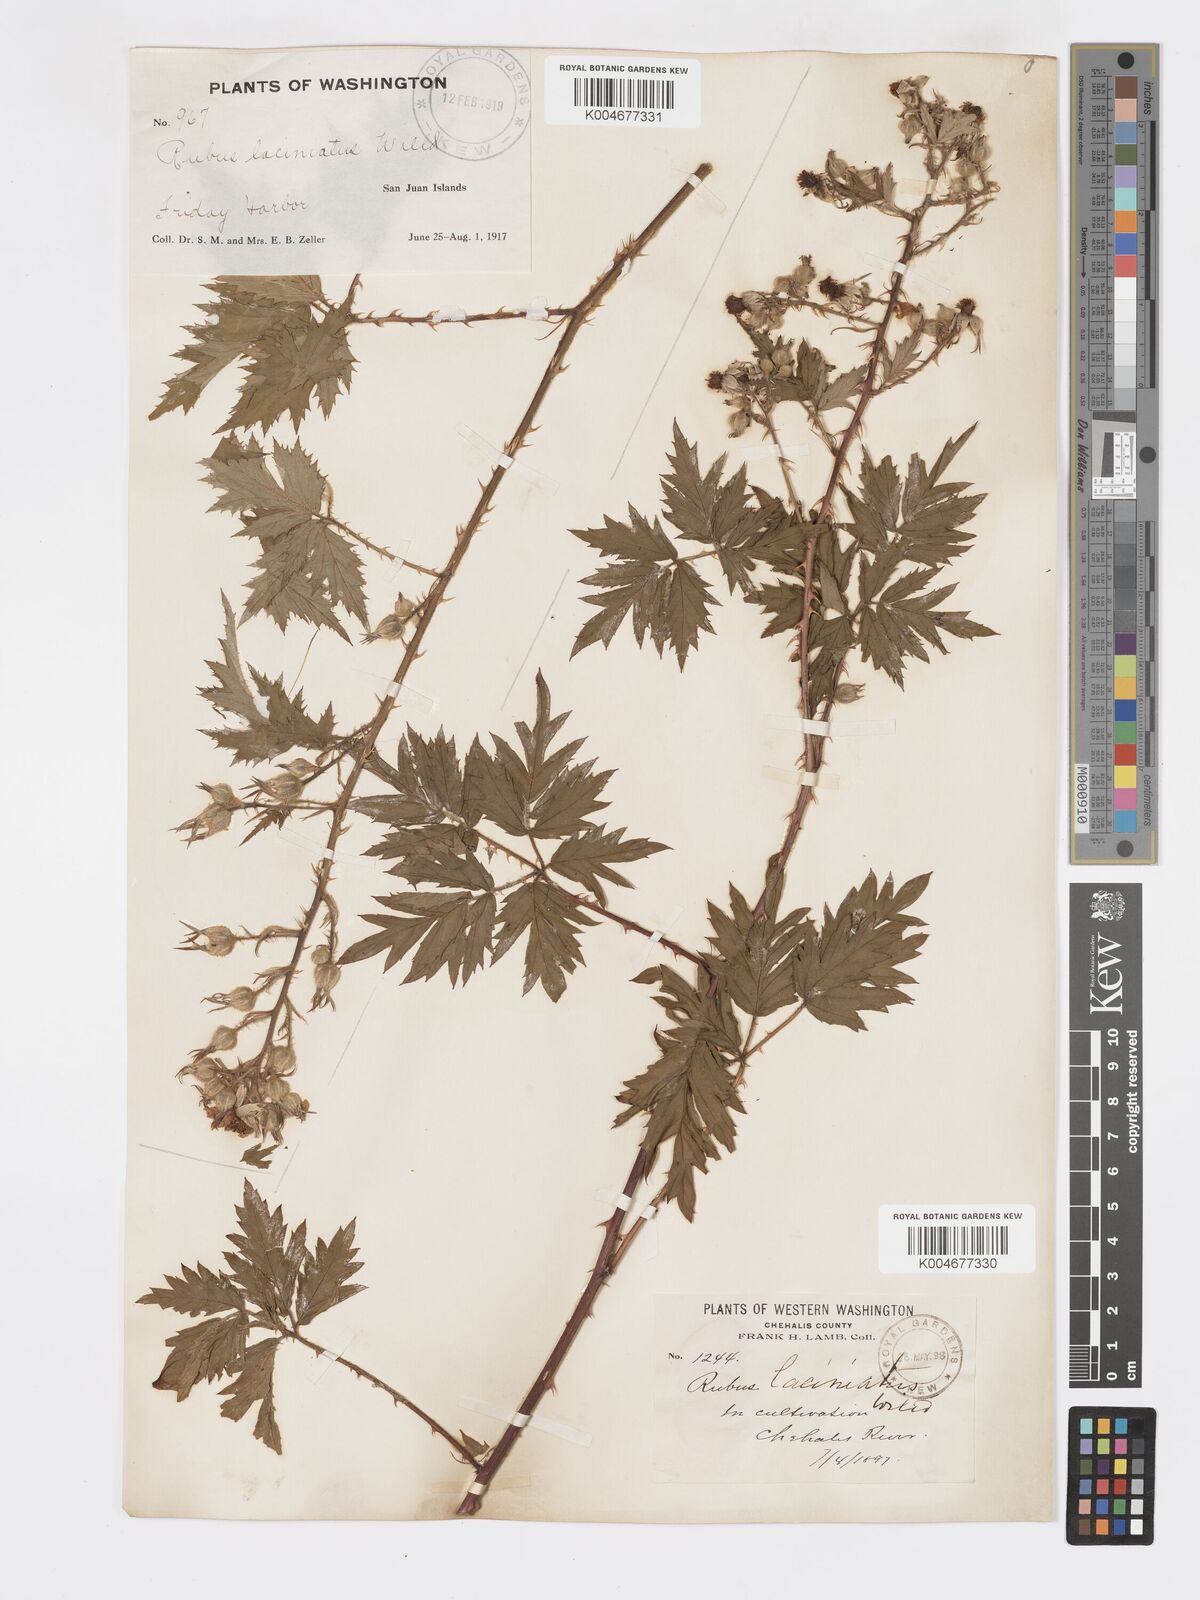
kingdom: Plantae
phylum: Tracheophyta
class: Magnoliopsida
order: Rosales
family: Rosaceae
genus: Rubus
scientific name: Rubus laciniatus
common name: Evergreen blackberry
